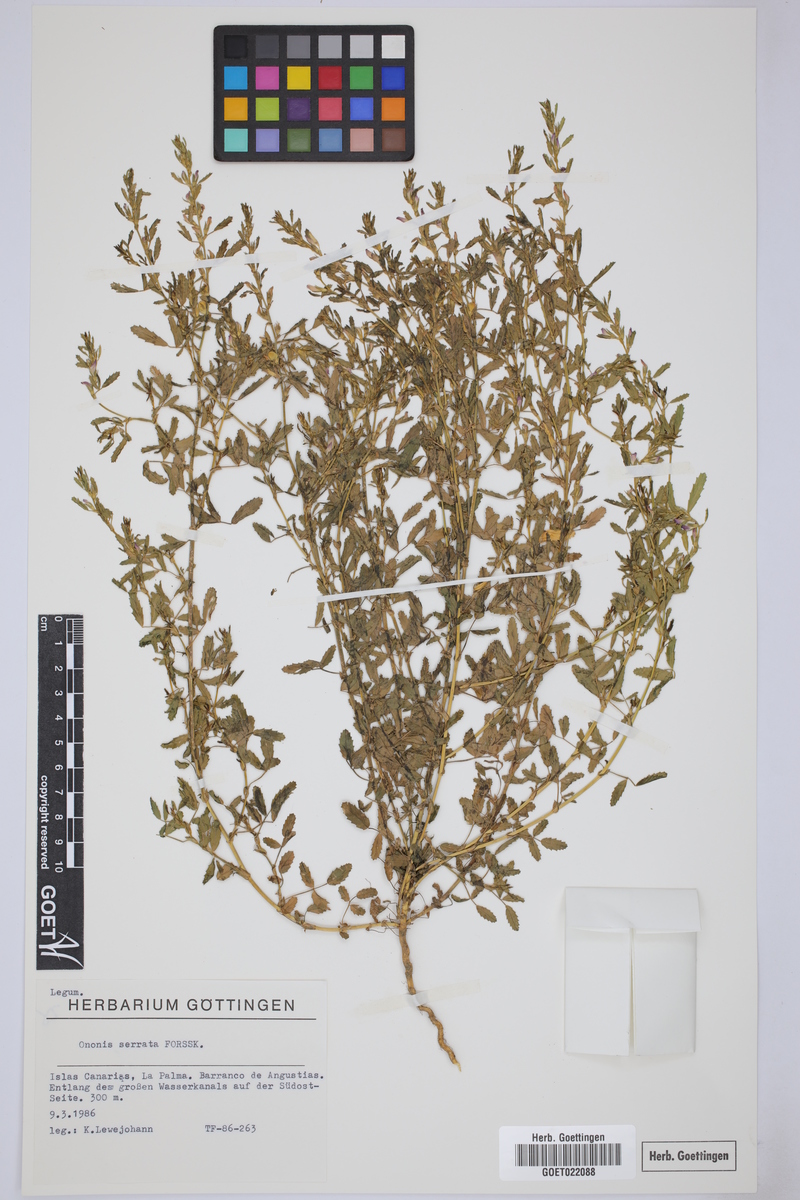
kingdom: Plantae
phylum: Tracheophyta
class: Magnoliopsida
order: Fabales
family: Fabaceae
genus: Ononis
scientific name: Ononis serrata
